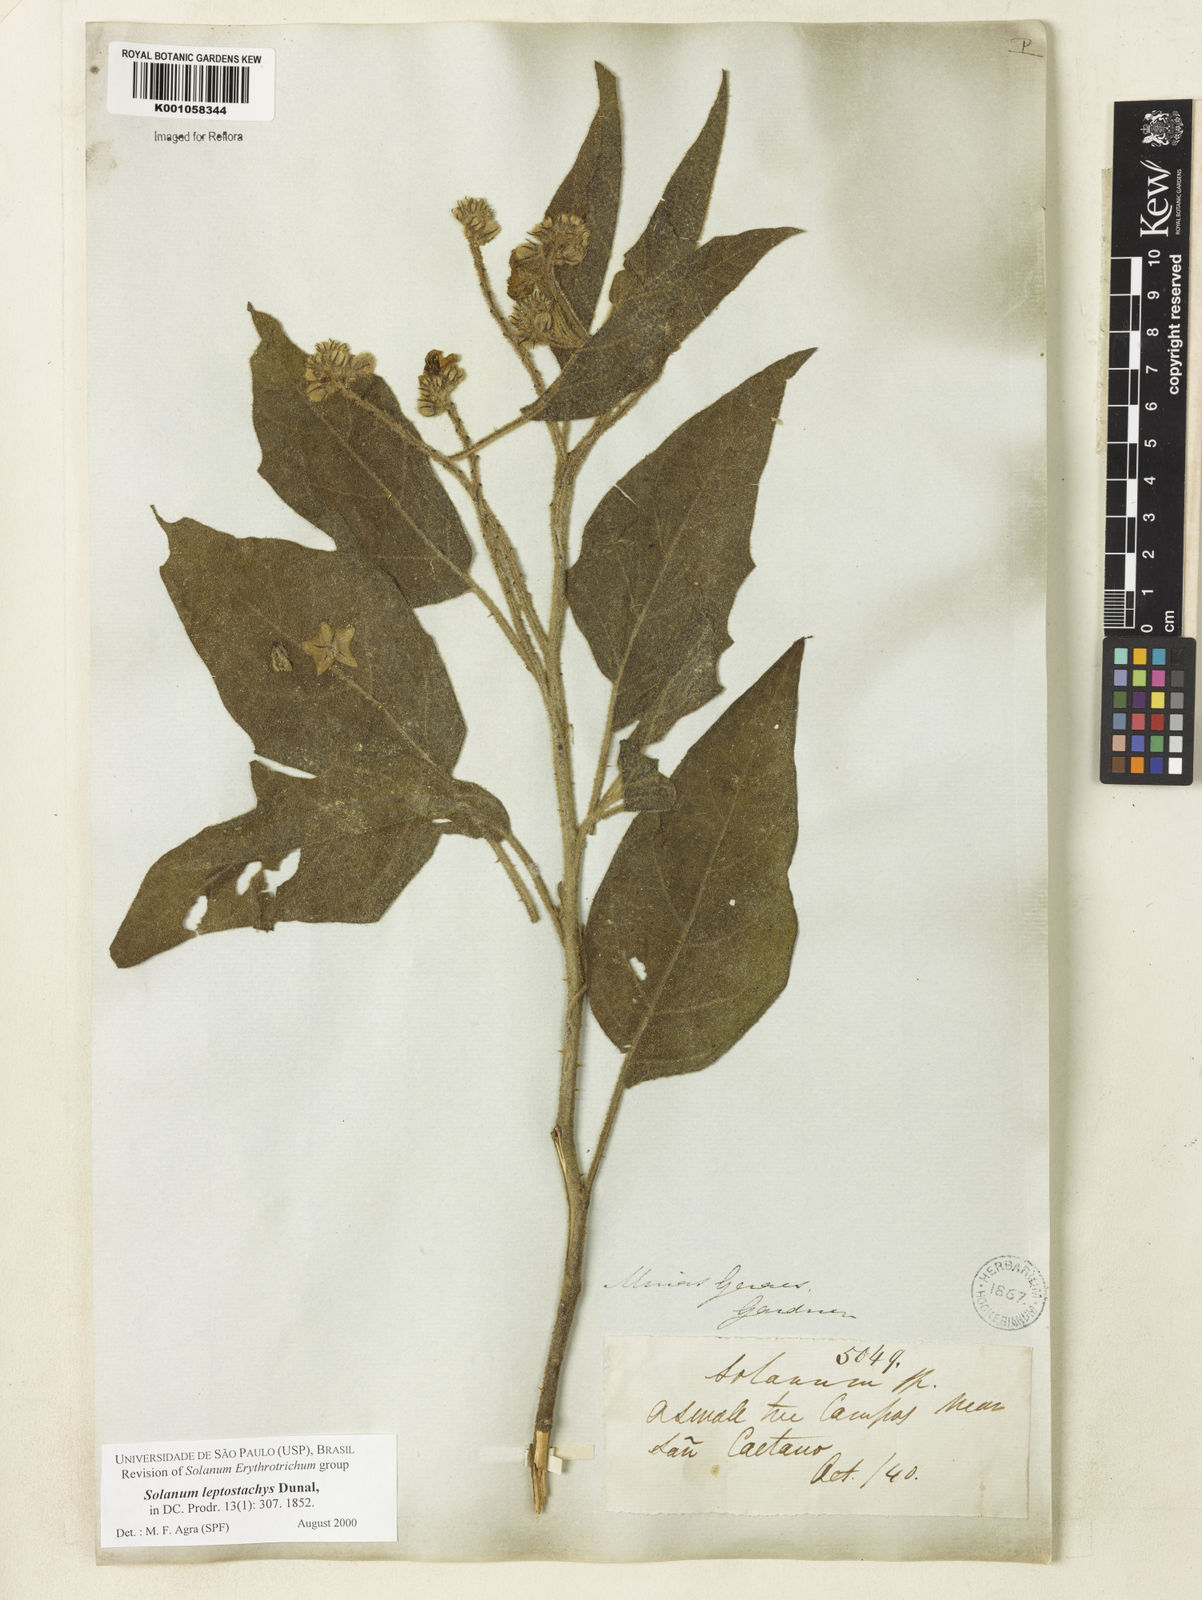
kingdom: Plantae
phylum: Tracheophyta
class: Magnoliopsida
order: Solanales
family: Solanaceae
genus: Solanum
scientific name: Solanum leptostachys
